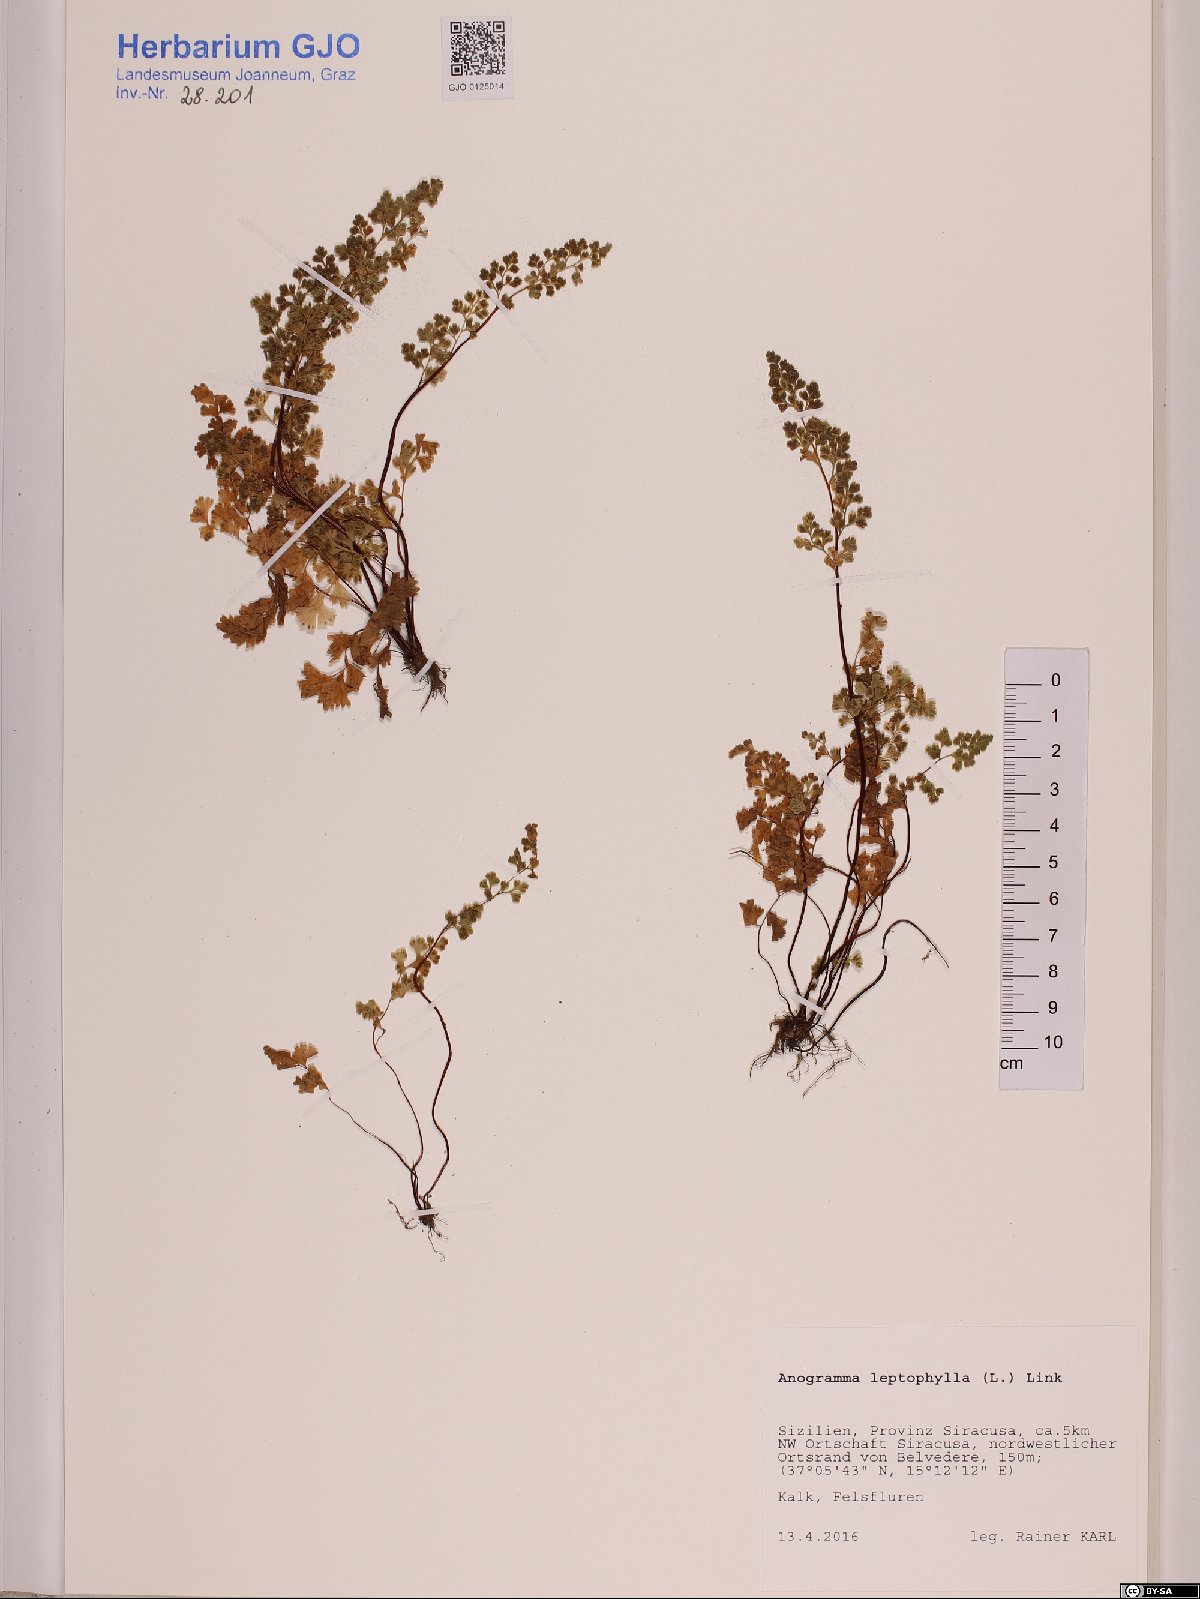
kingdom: Plantae
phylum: Tracheophyta
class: Polypodiopsida
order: Polypodiales
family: Pteridaceae
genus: Anogramma
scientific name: Anogramma leptophylla
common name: Jersey fern
